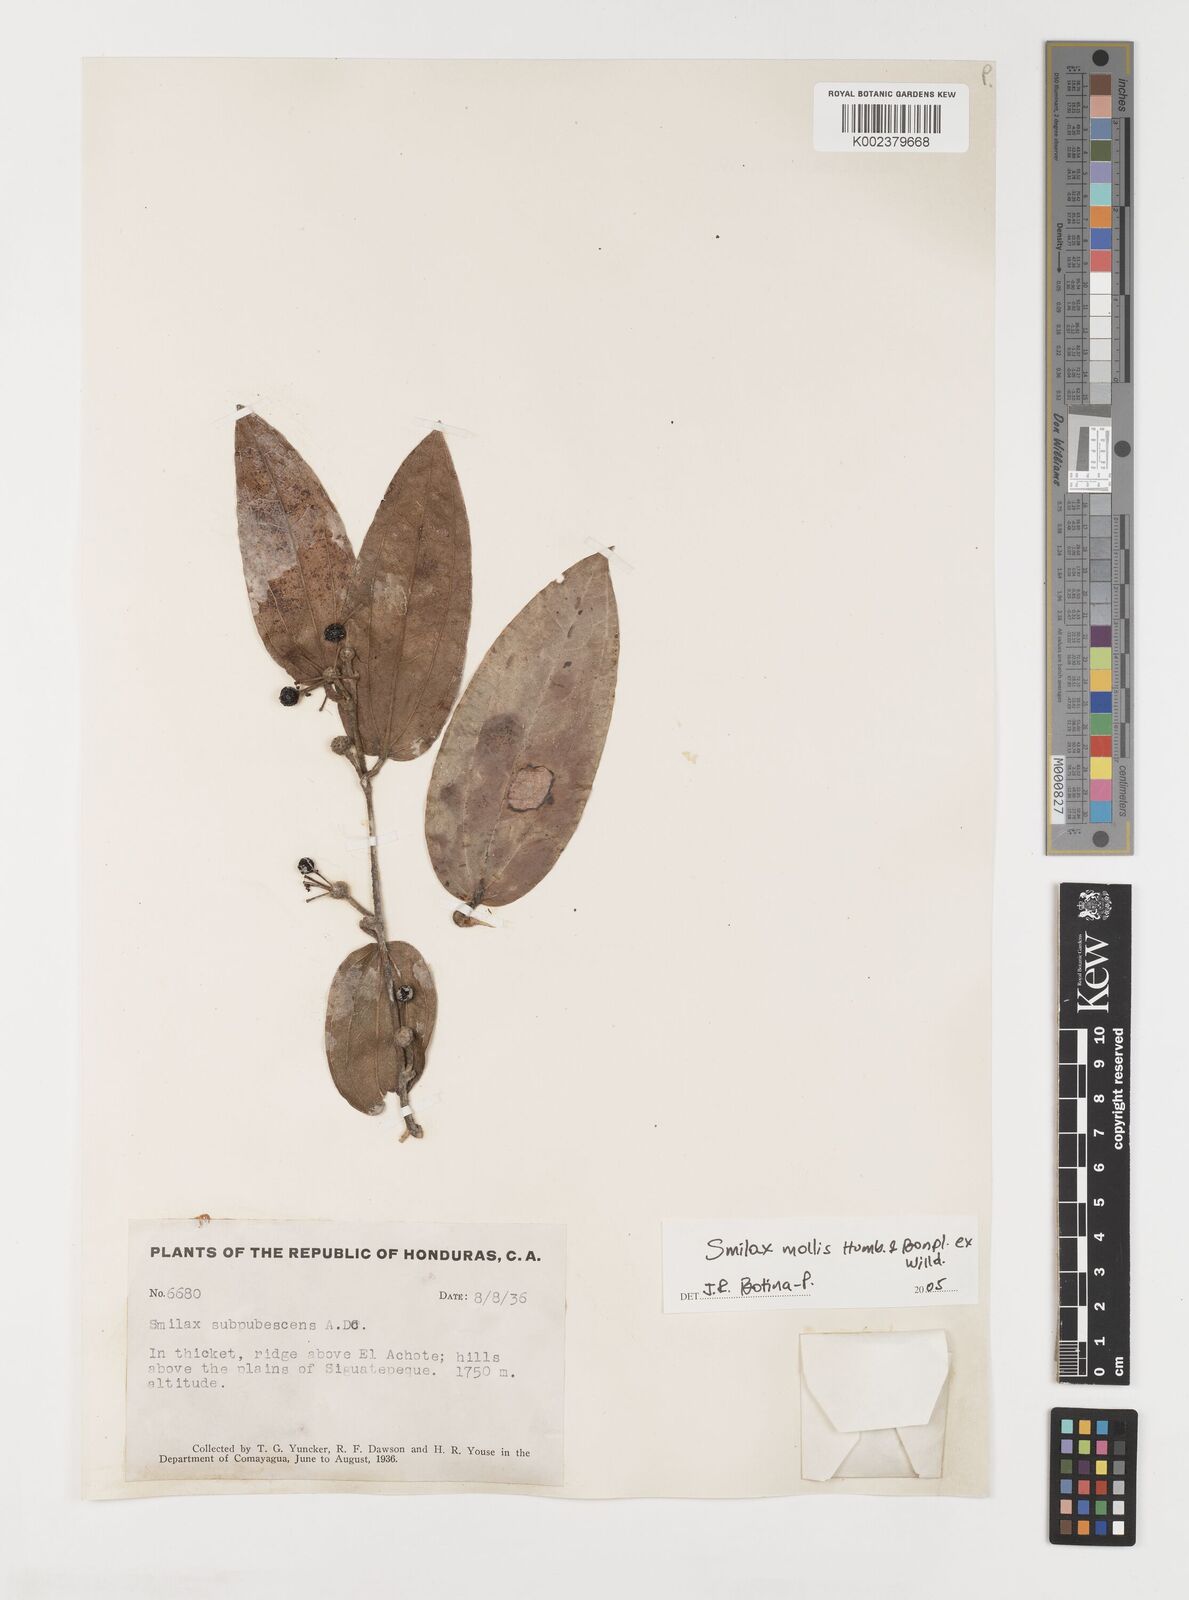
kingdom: Plantae
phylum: Tracheophyta
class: Liliopsida
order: Liliales
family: Smilacaceae
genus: Smilax
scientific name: Smilax mollis
